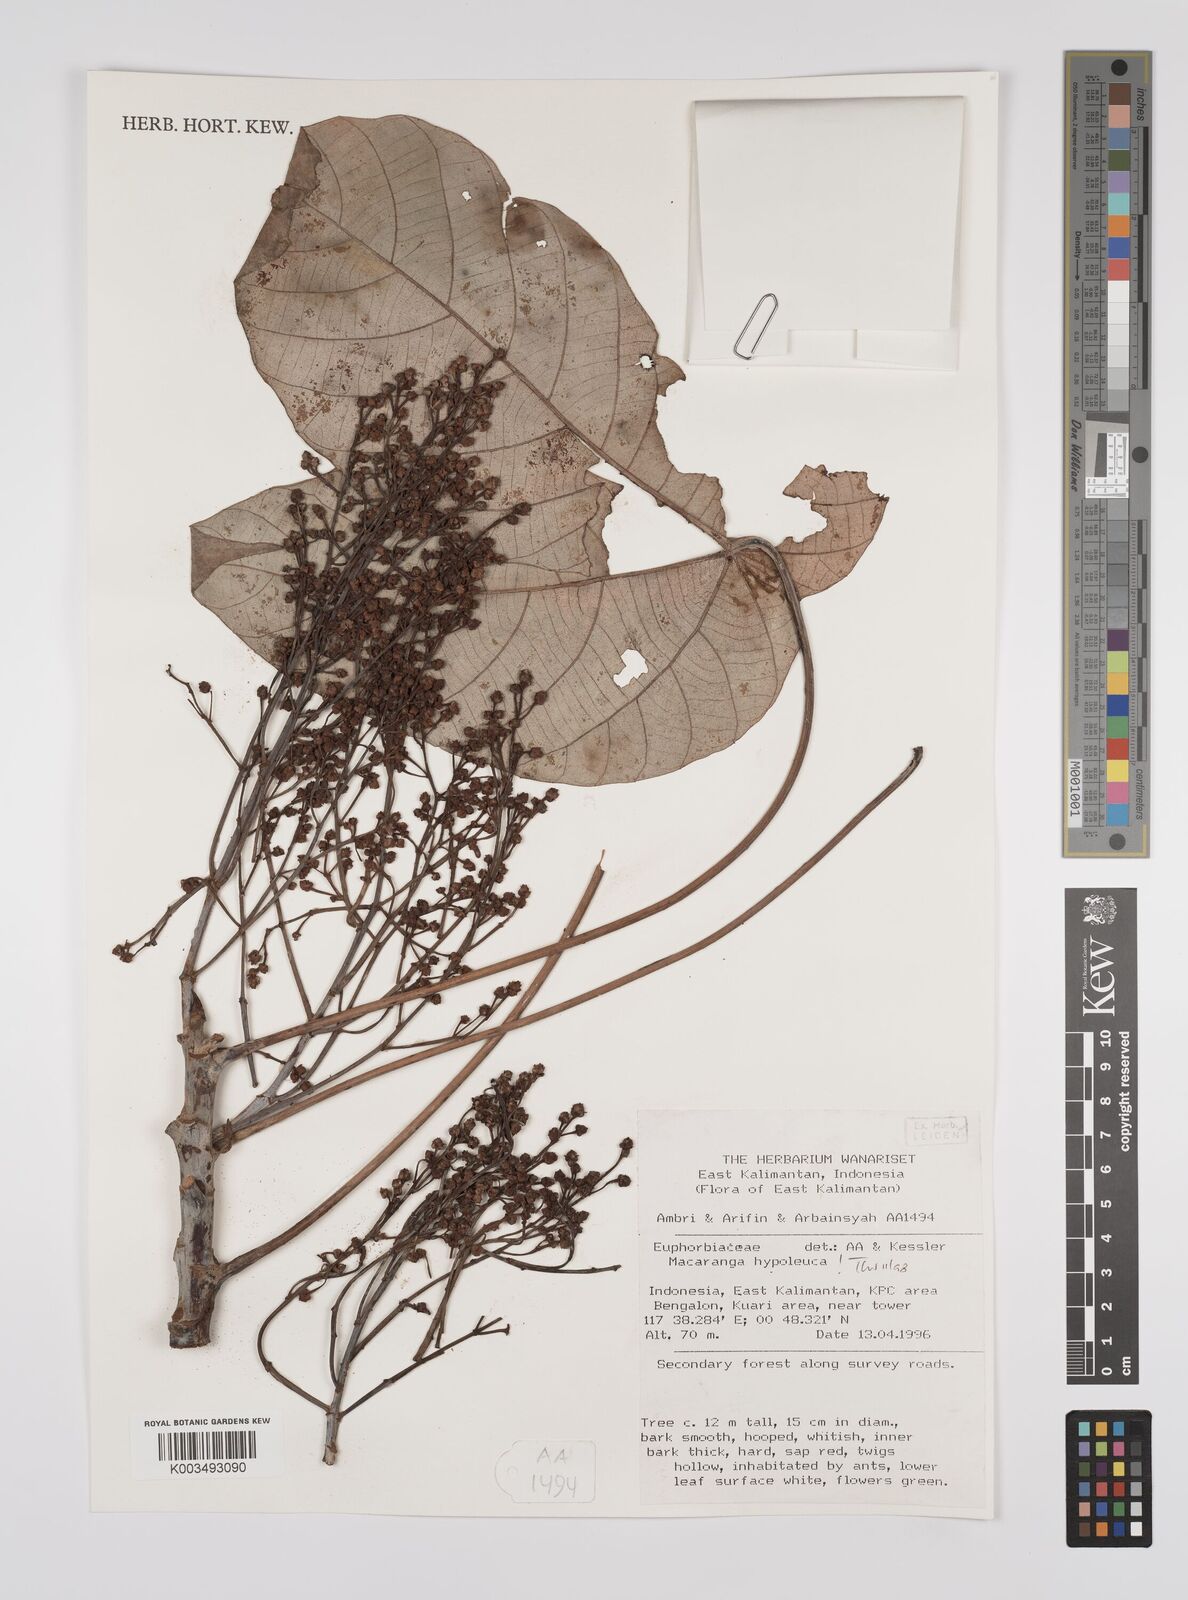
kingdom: Plantae
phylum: Tracheophyta
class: Magnoliopsida
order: Malpighiales
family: Euphorbiaceae
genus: Macaranga
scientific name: Macaranga hypoleuca
